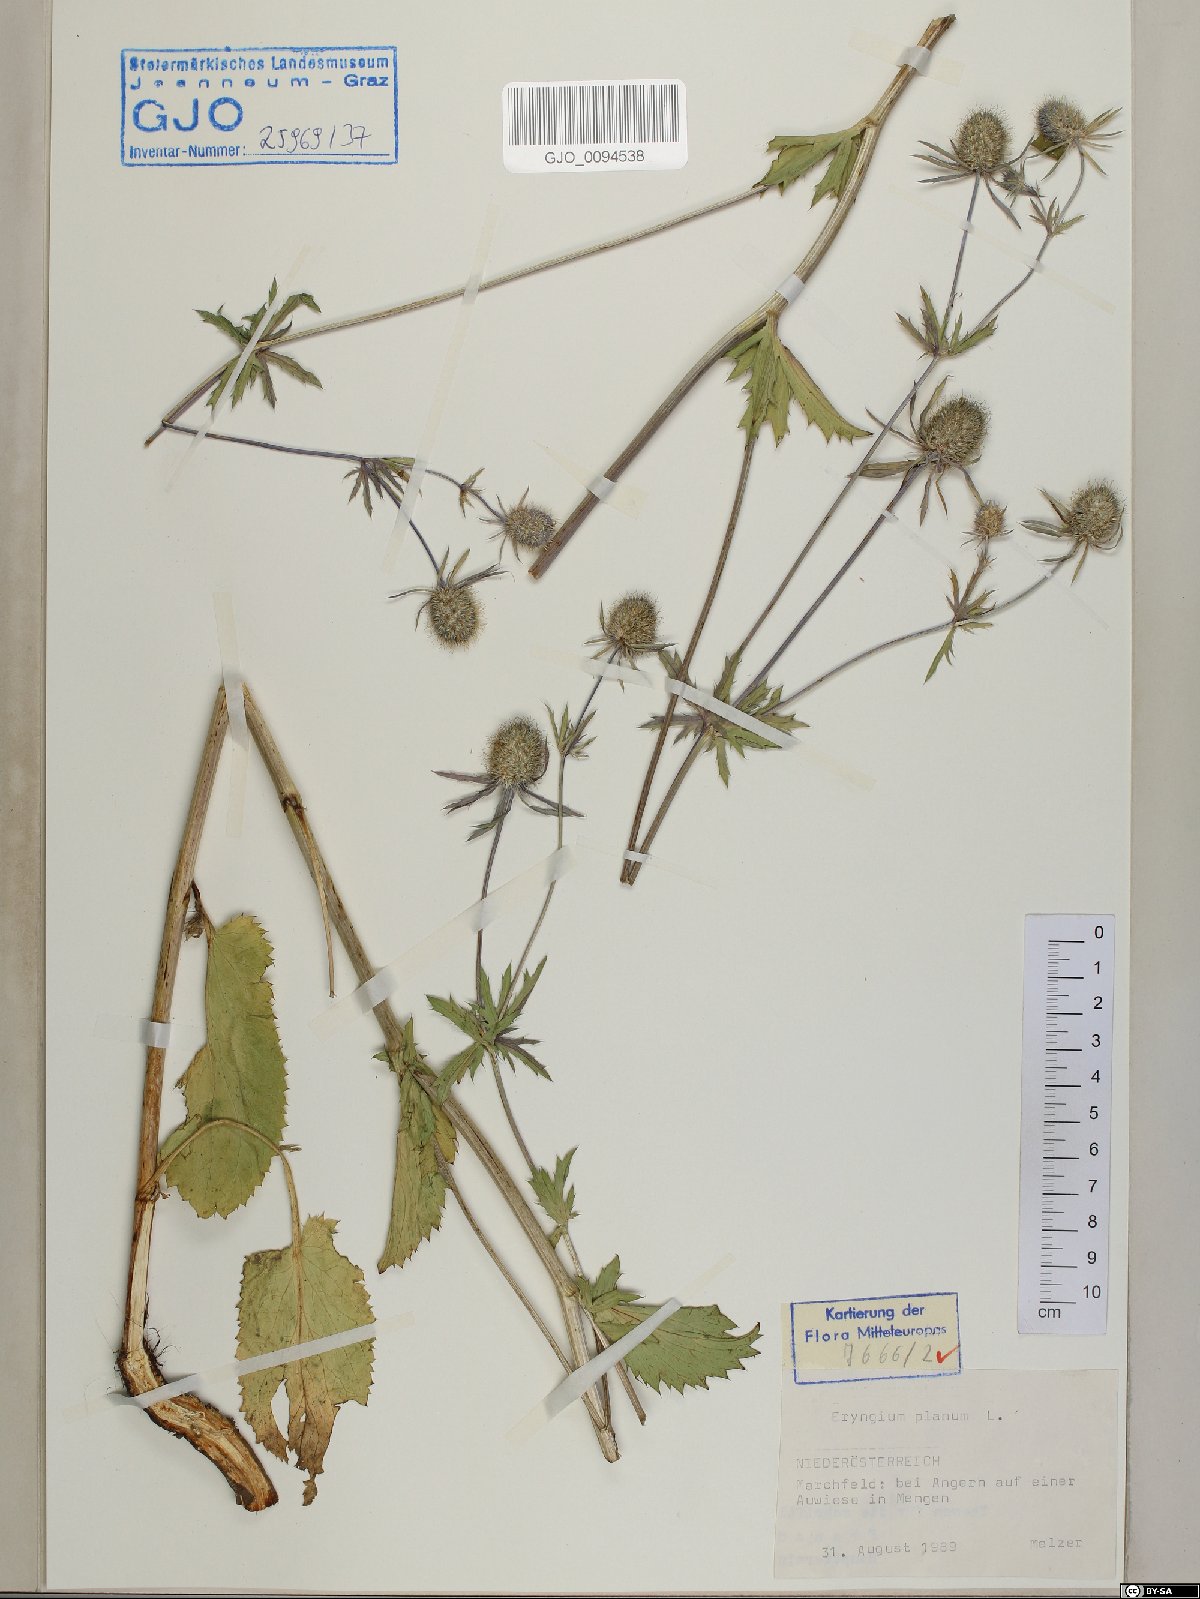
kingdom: Plantae
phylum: Tracheophyta
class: Magnoliopsida
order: Apiales
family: Apiaceae
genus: Eryngium
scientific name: Eryngium planum
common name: Blue eryngo
